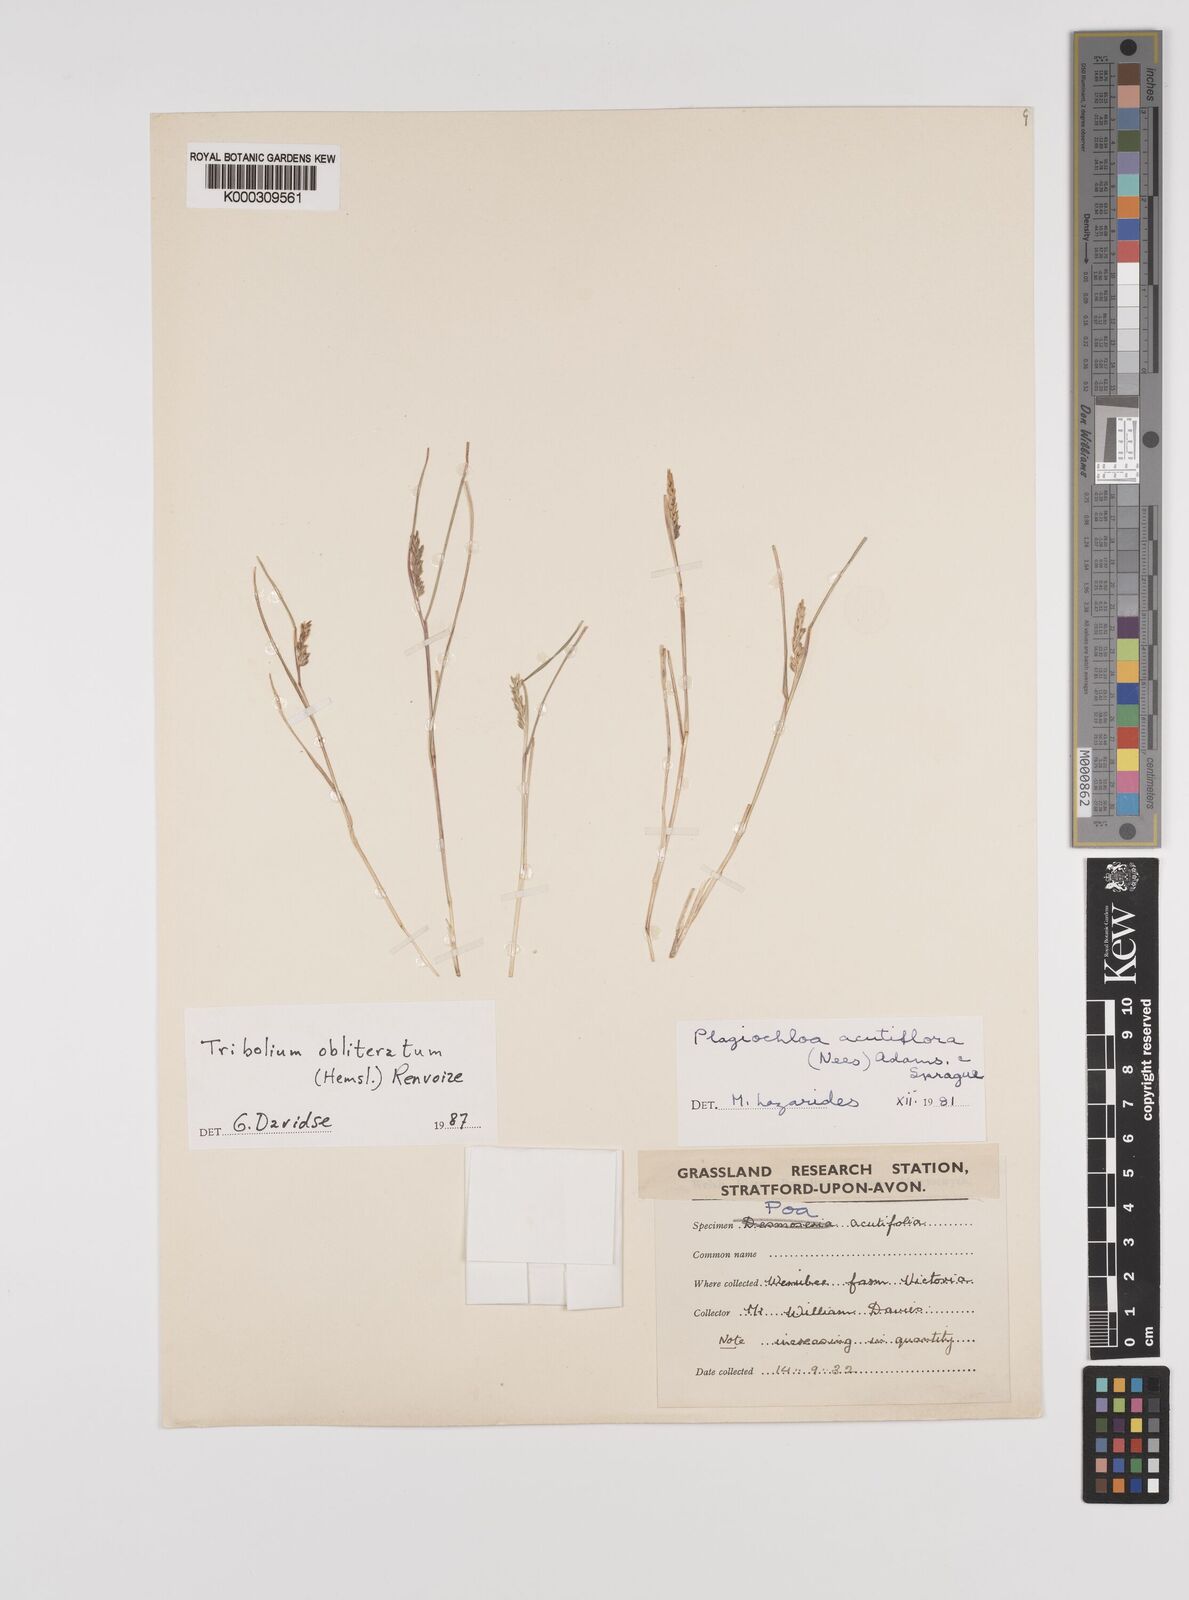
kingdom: Plantae
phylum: Tracheophyta
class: Liliopsida
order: Poales
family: Poaceae
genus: Tribolium
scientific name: Tribolium obliterum
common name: Capetown grass
